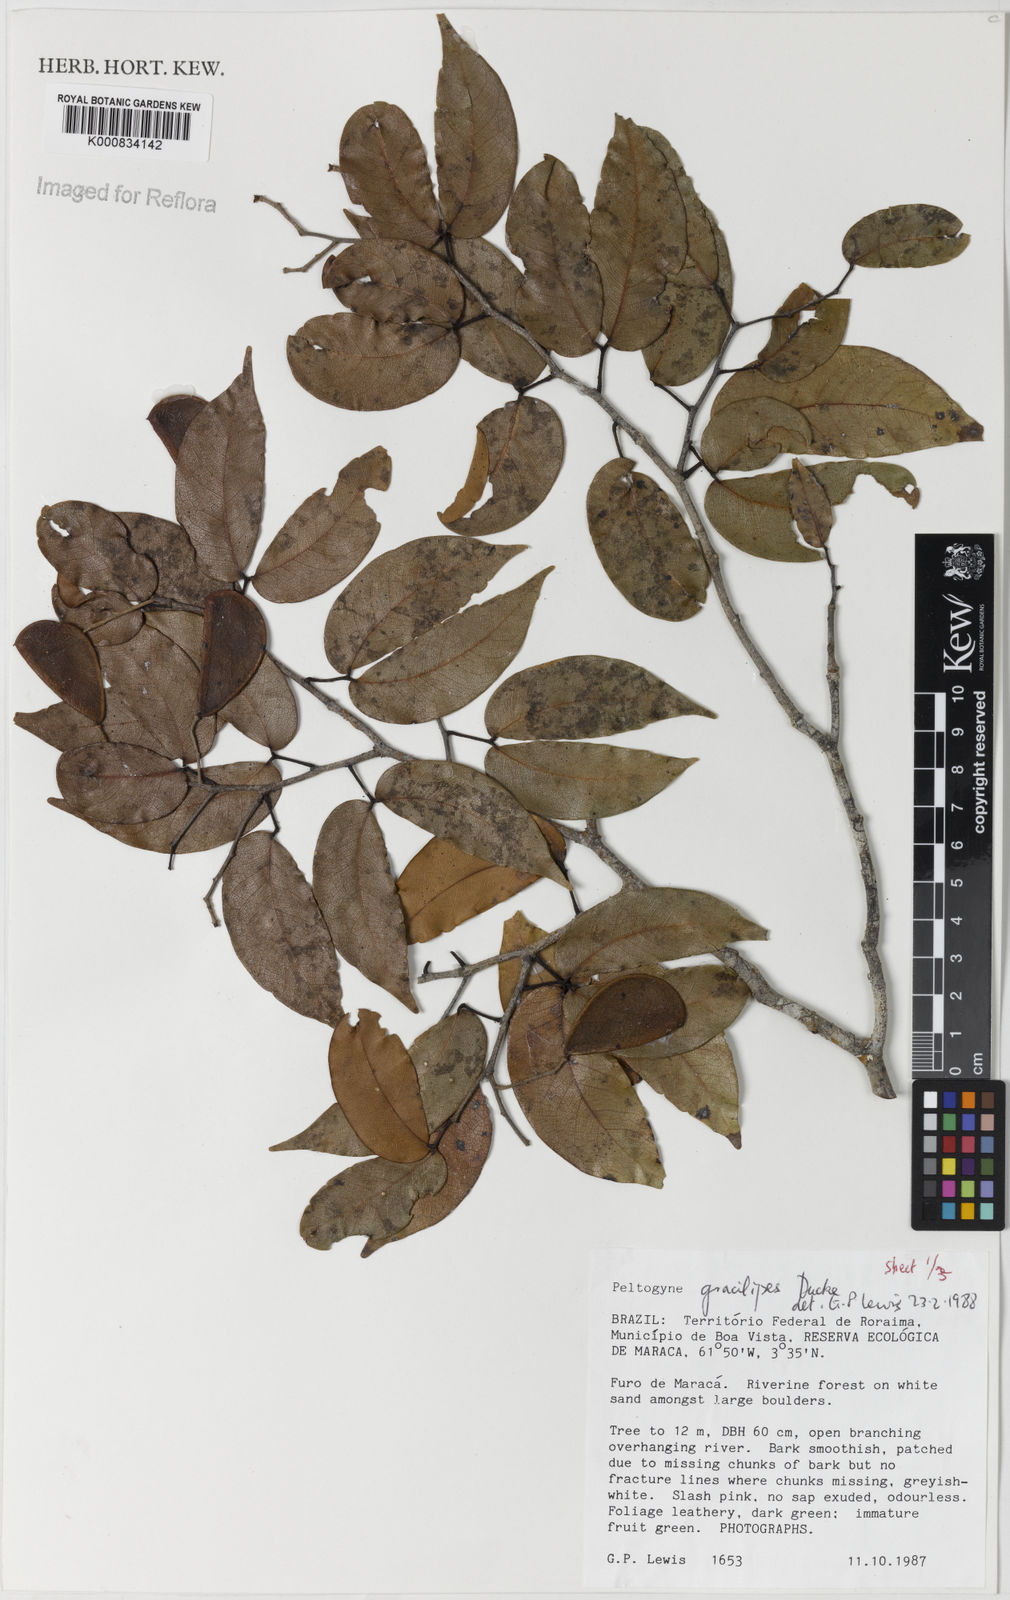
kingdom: Plantae
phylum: Tracheophyta
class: Magnoliopsida
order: Fabales
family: Fabaceae
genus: Peltogyne
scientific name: Peltogyne gracilipes
